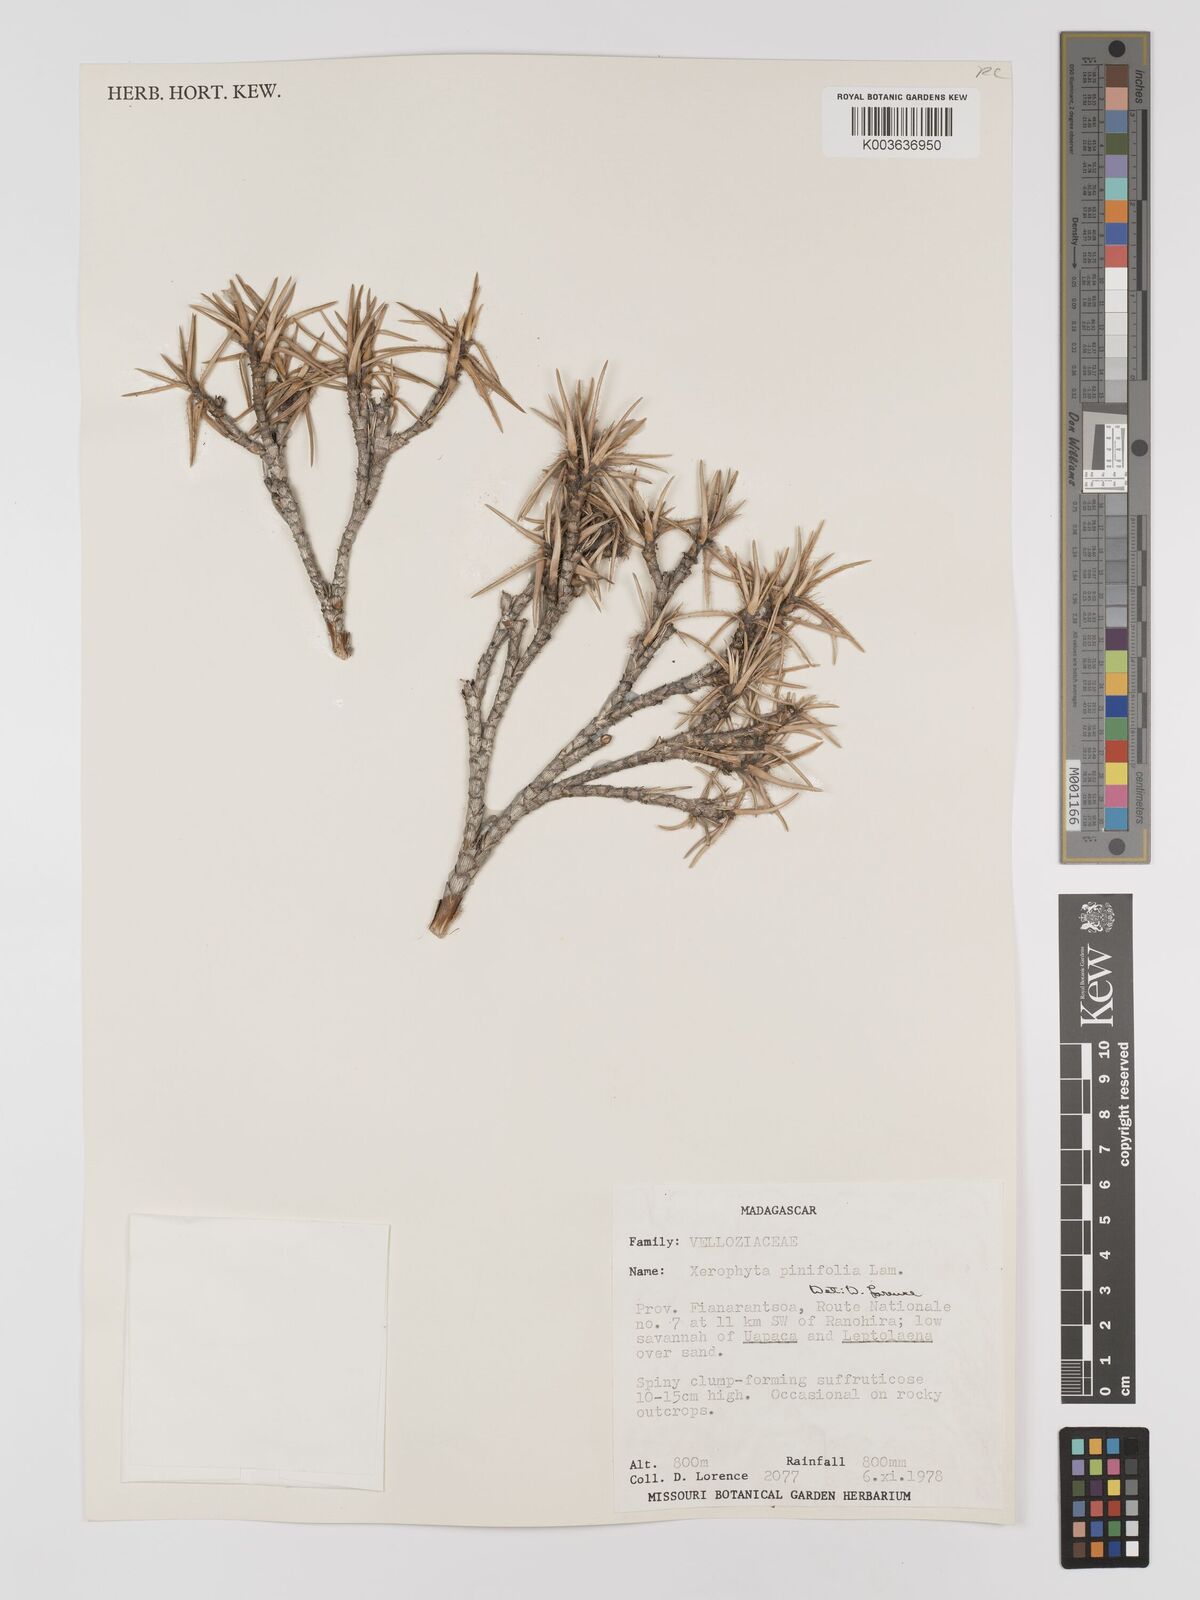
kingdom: Plantae
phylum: Tracheophyta
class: Liliopsida
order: Pandanales
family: Velloziaceae
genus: Xerophyta
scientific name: Xerophyta pinifolia
